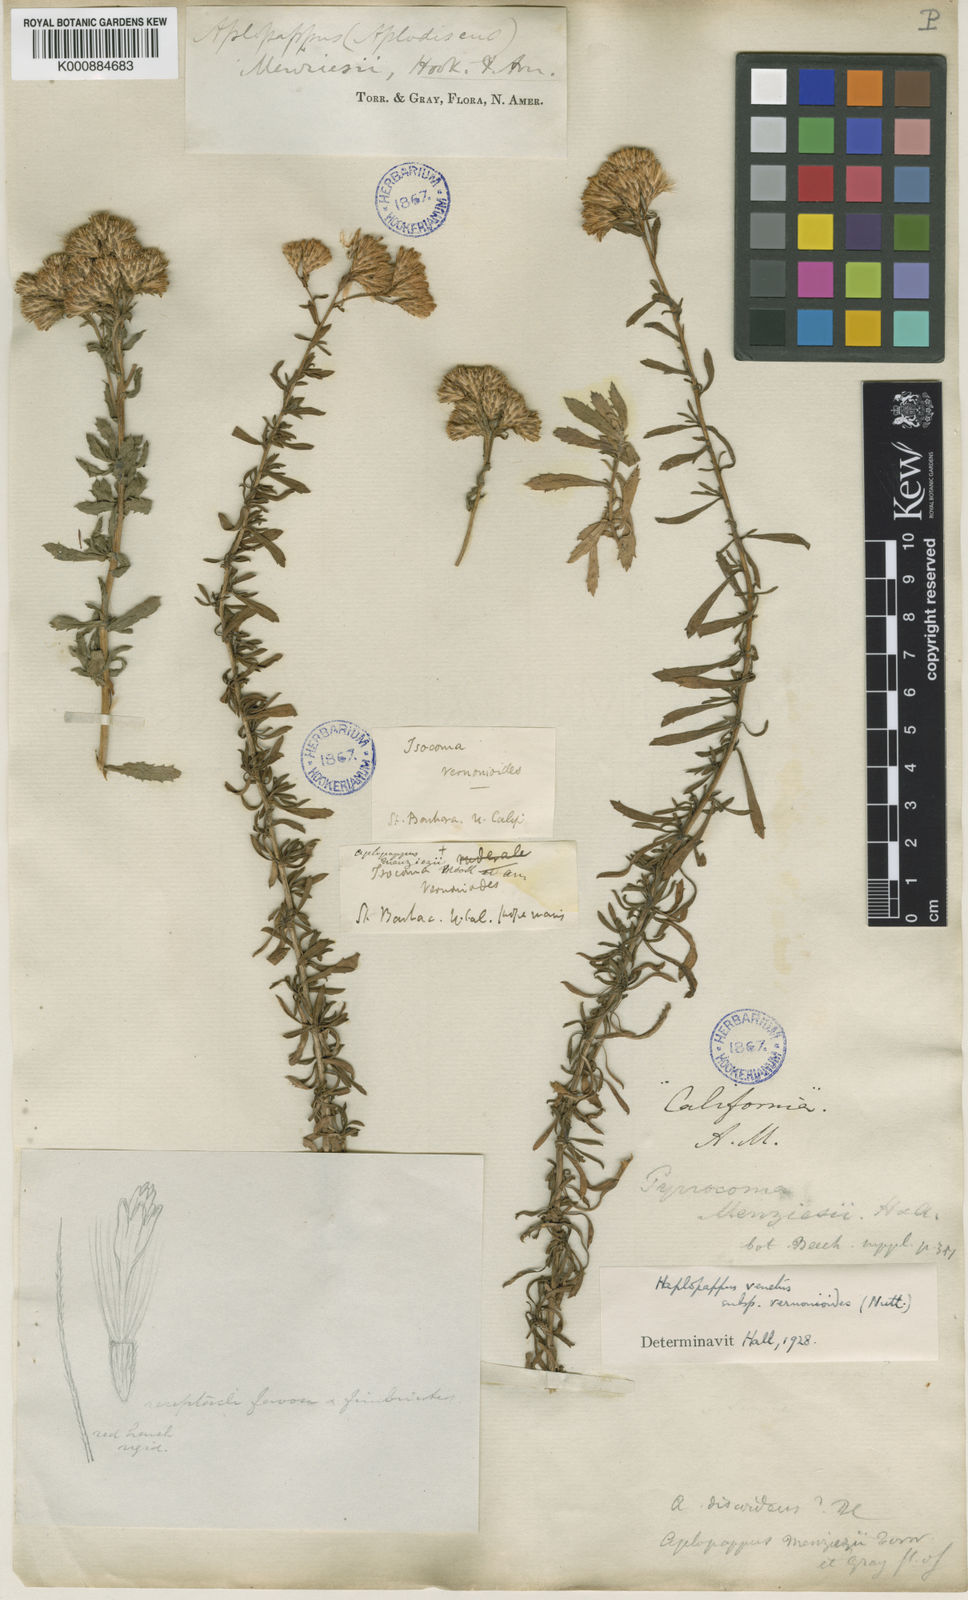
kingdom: Plantae
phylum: Tracheophyta
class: Magnoliopsida
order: Asterales
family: Asteraceae
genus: Isocoma
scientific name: Isocoma menziesii
